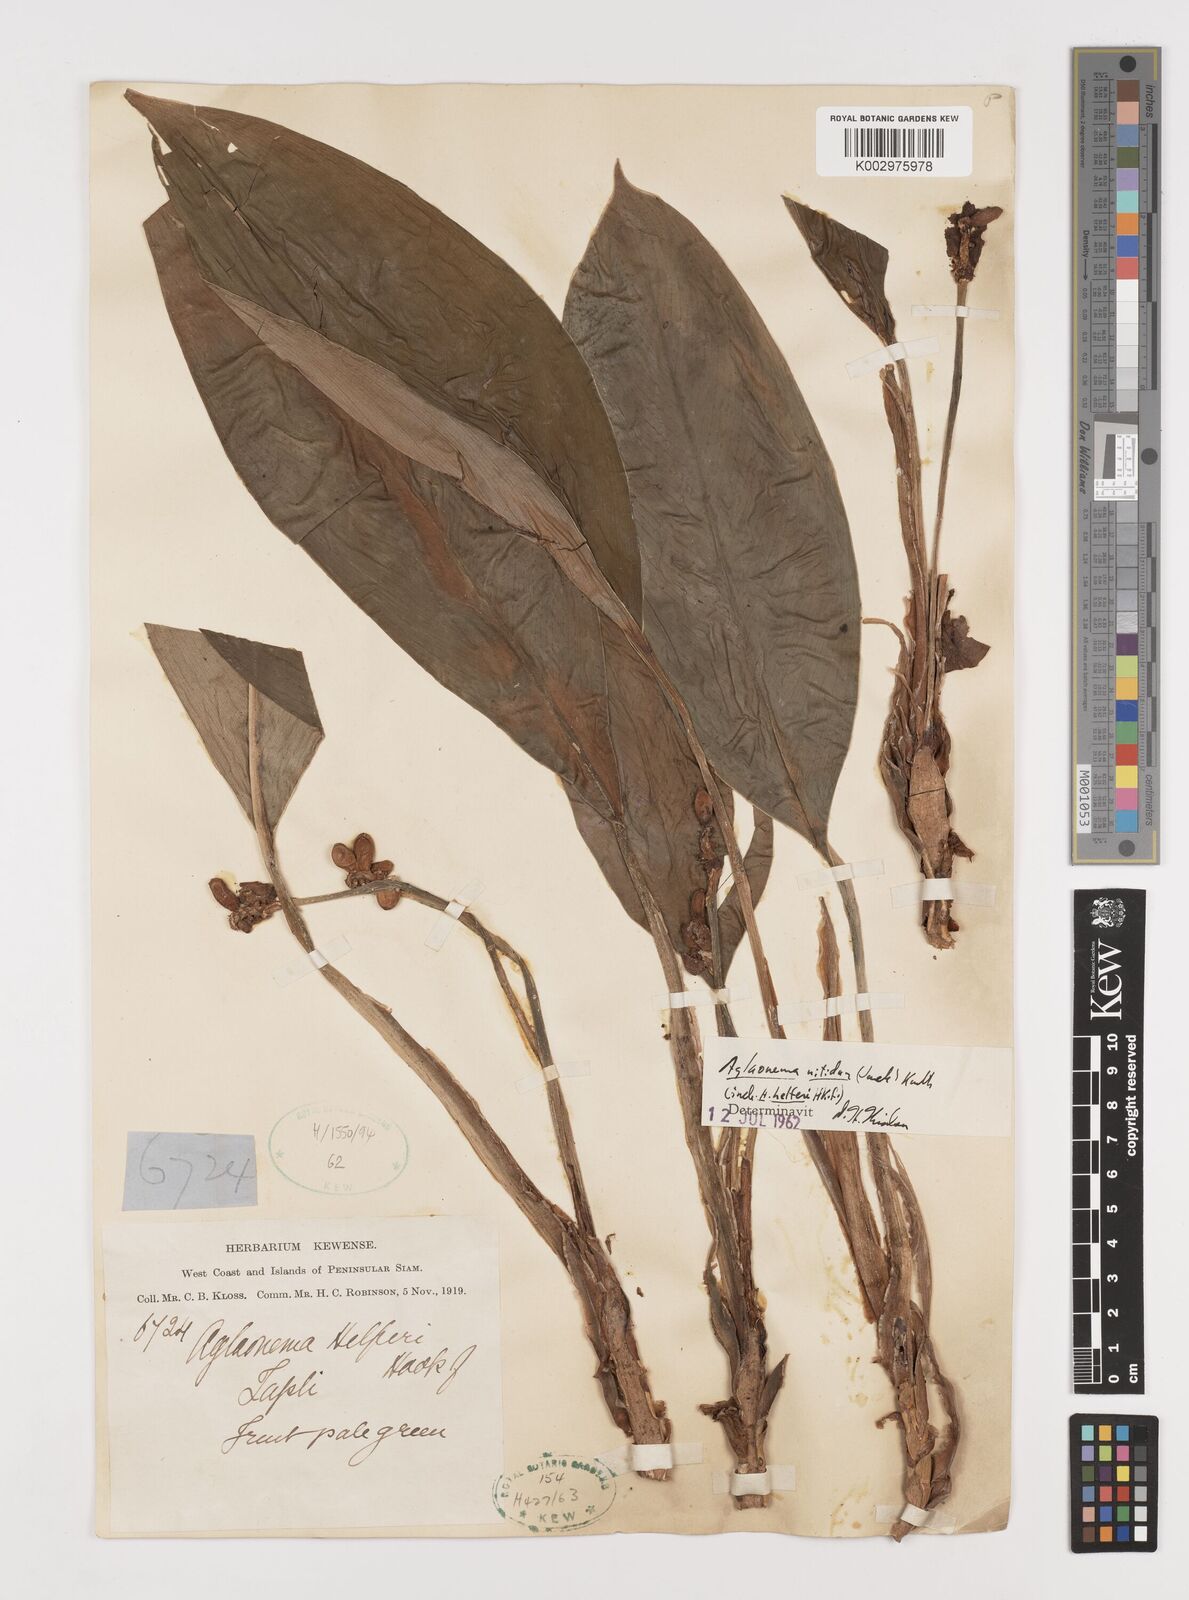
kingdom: Plantae
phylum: Tracheophyta
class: Liliopsida
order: Alismatales
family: Araceae
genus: Aglaonema
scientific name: Aglaonema nitidum
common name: Aglaonema aroid
